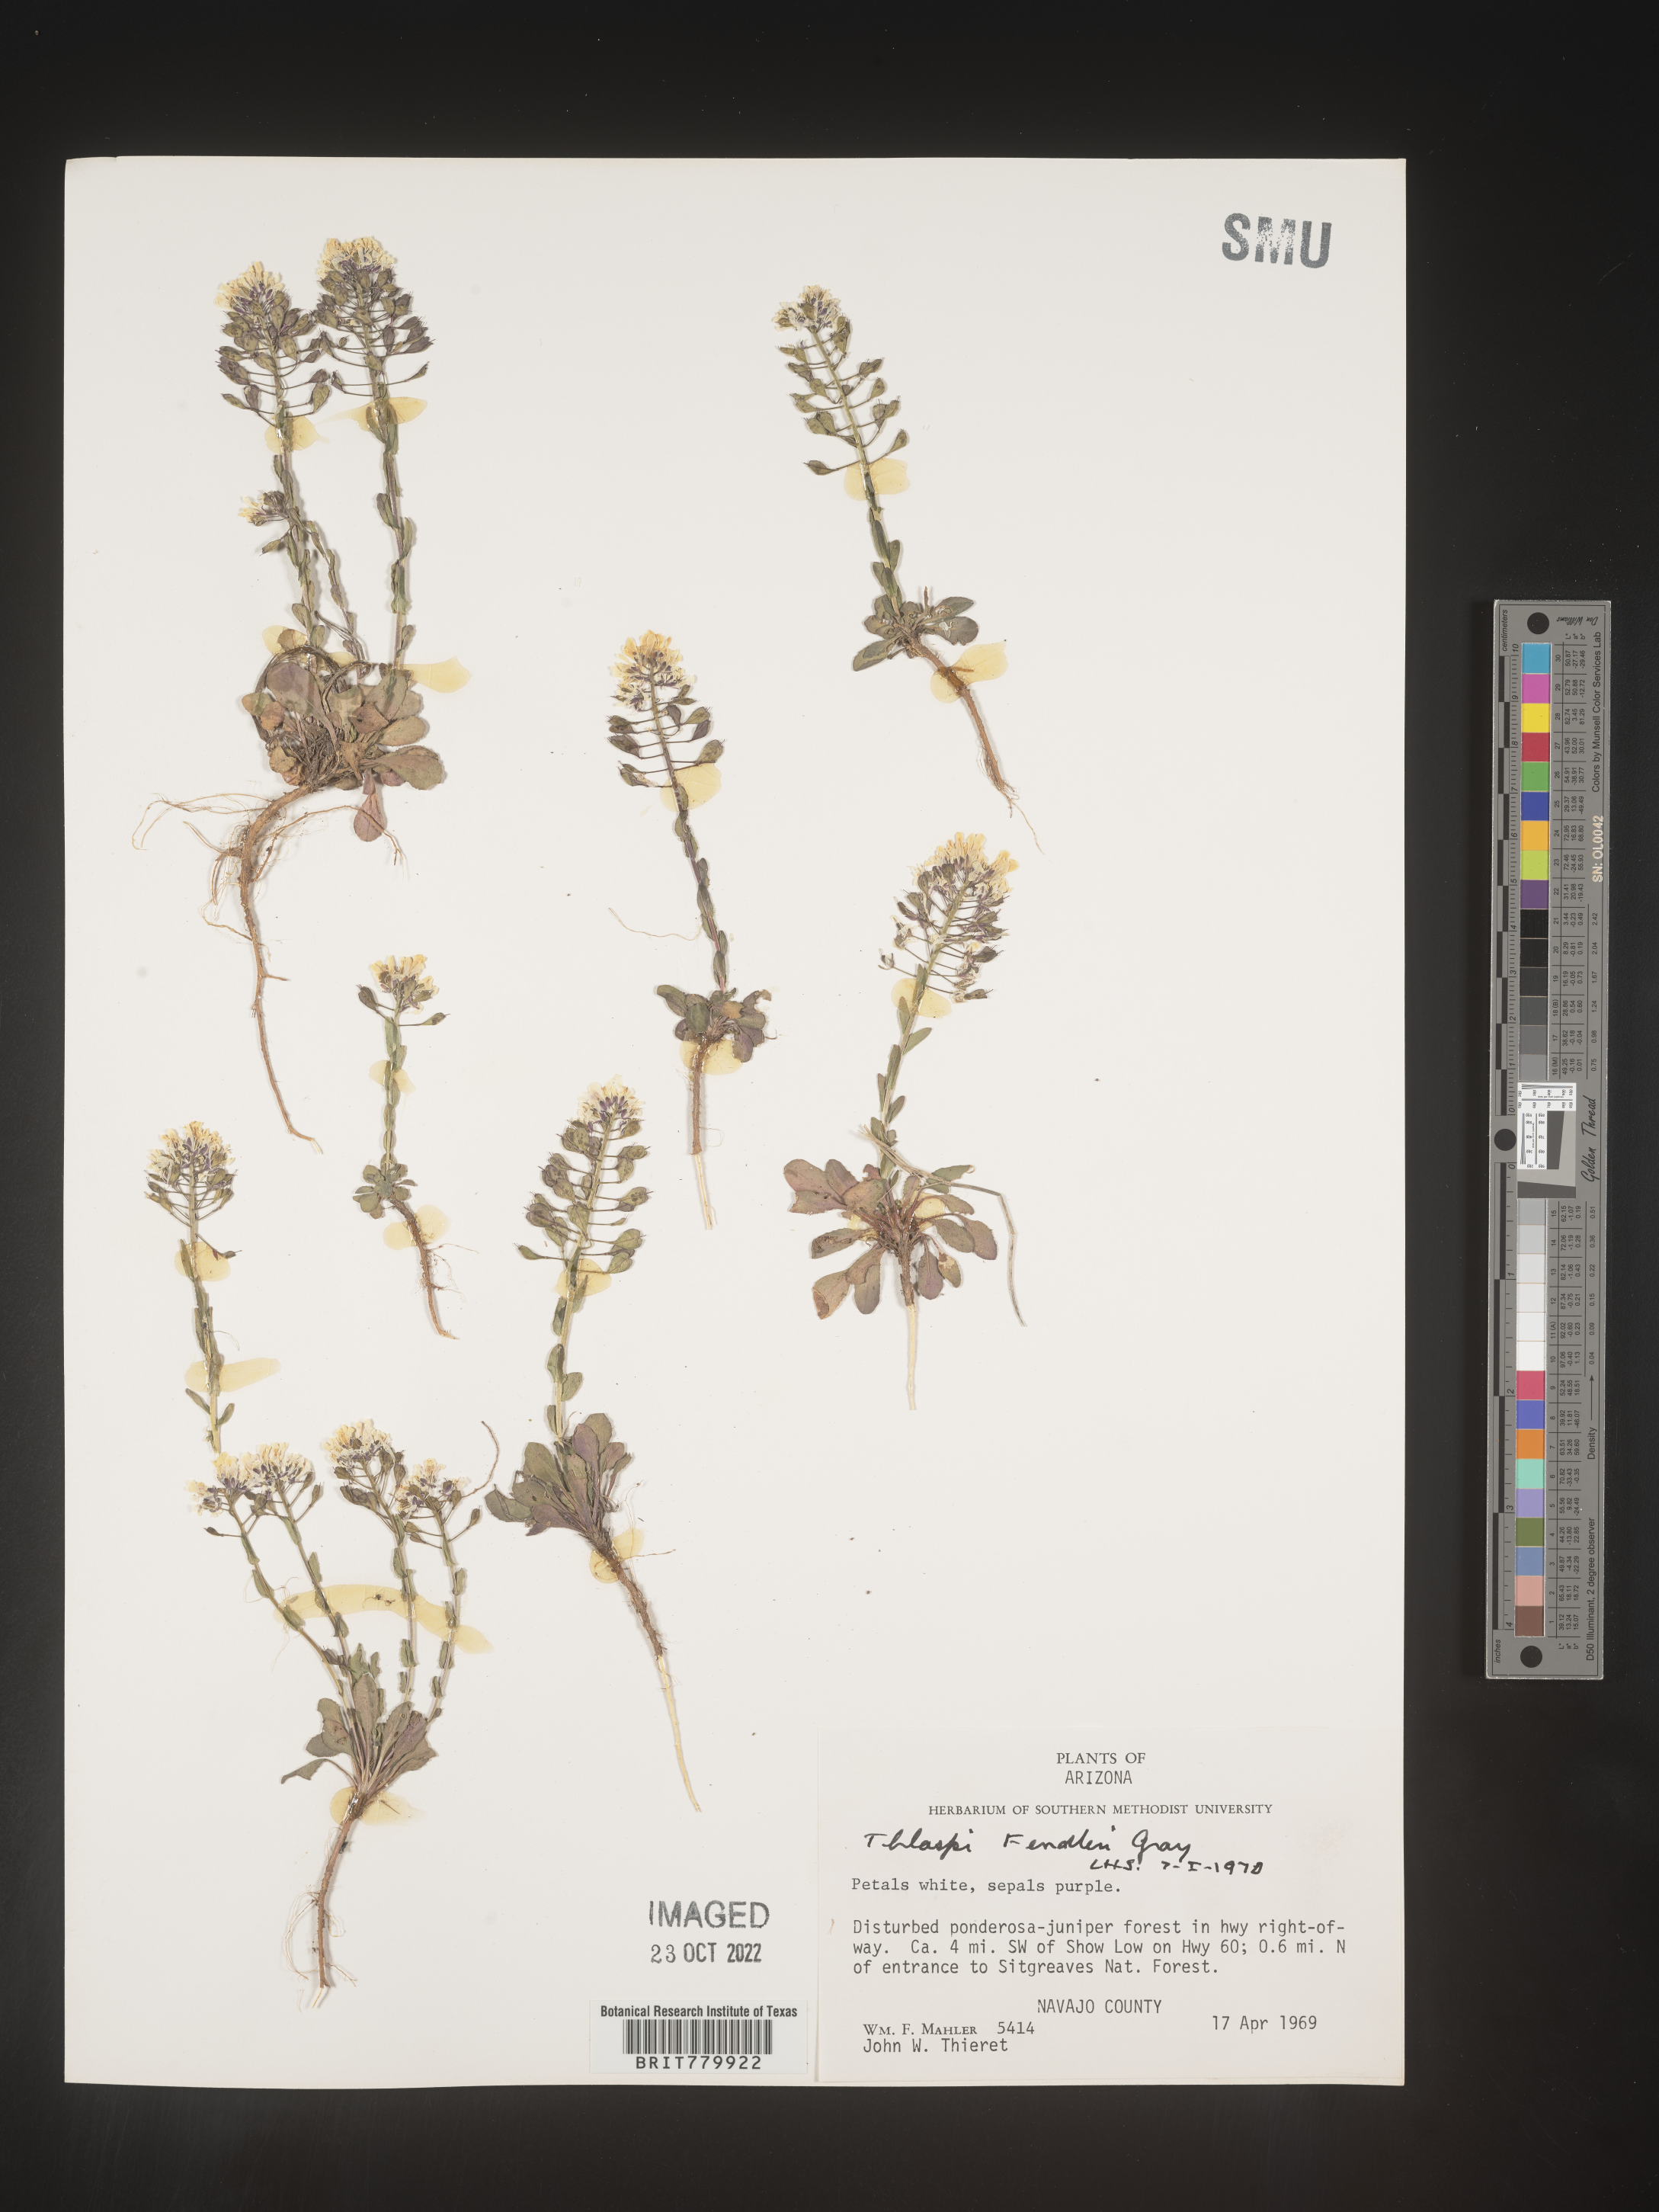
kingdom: Plantae
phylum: Tracheophyta
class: Magnoliopsida
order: Brassicales
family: Brassicaceae
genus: Thlaspi
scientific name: Thlaspi
